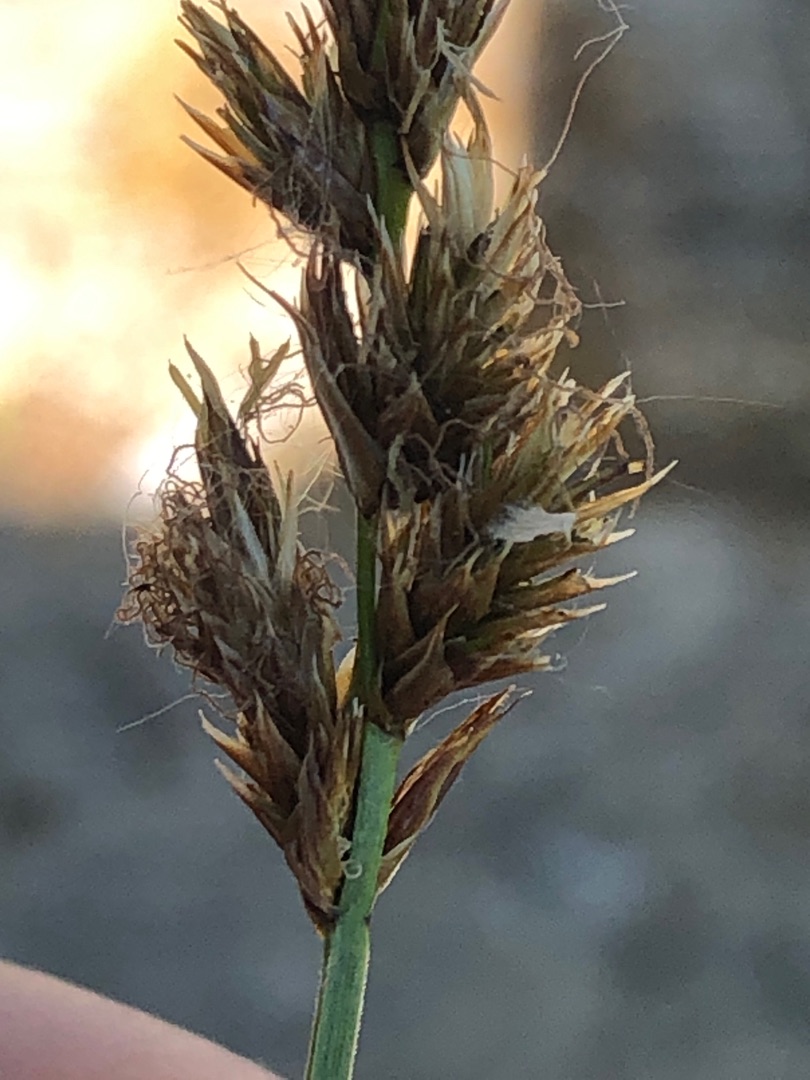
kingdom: Plantae
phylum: Tracheophyta
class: Liliopsida
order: Poales
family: Cyperaceae
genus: Carex
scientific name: Carex disticha
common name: Toradet star
